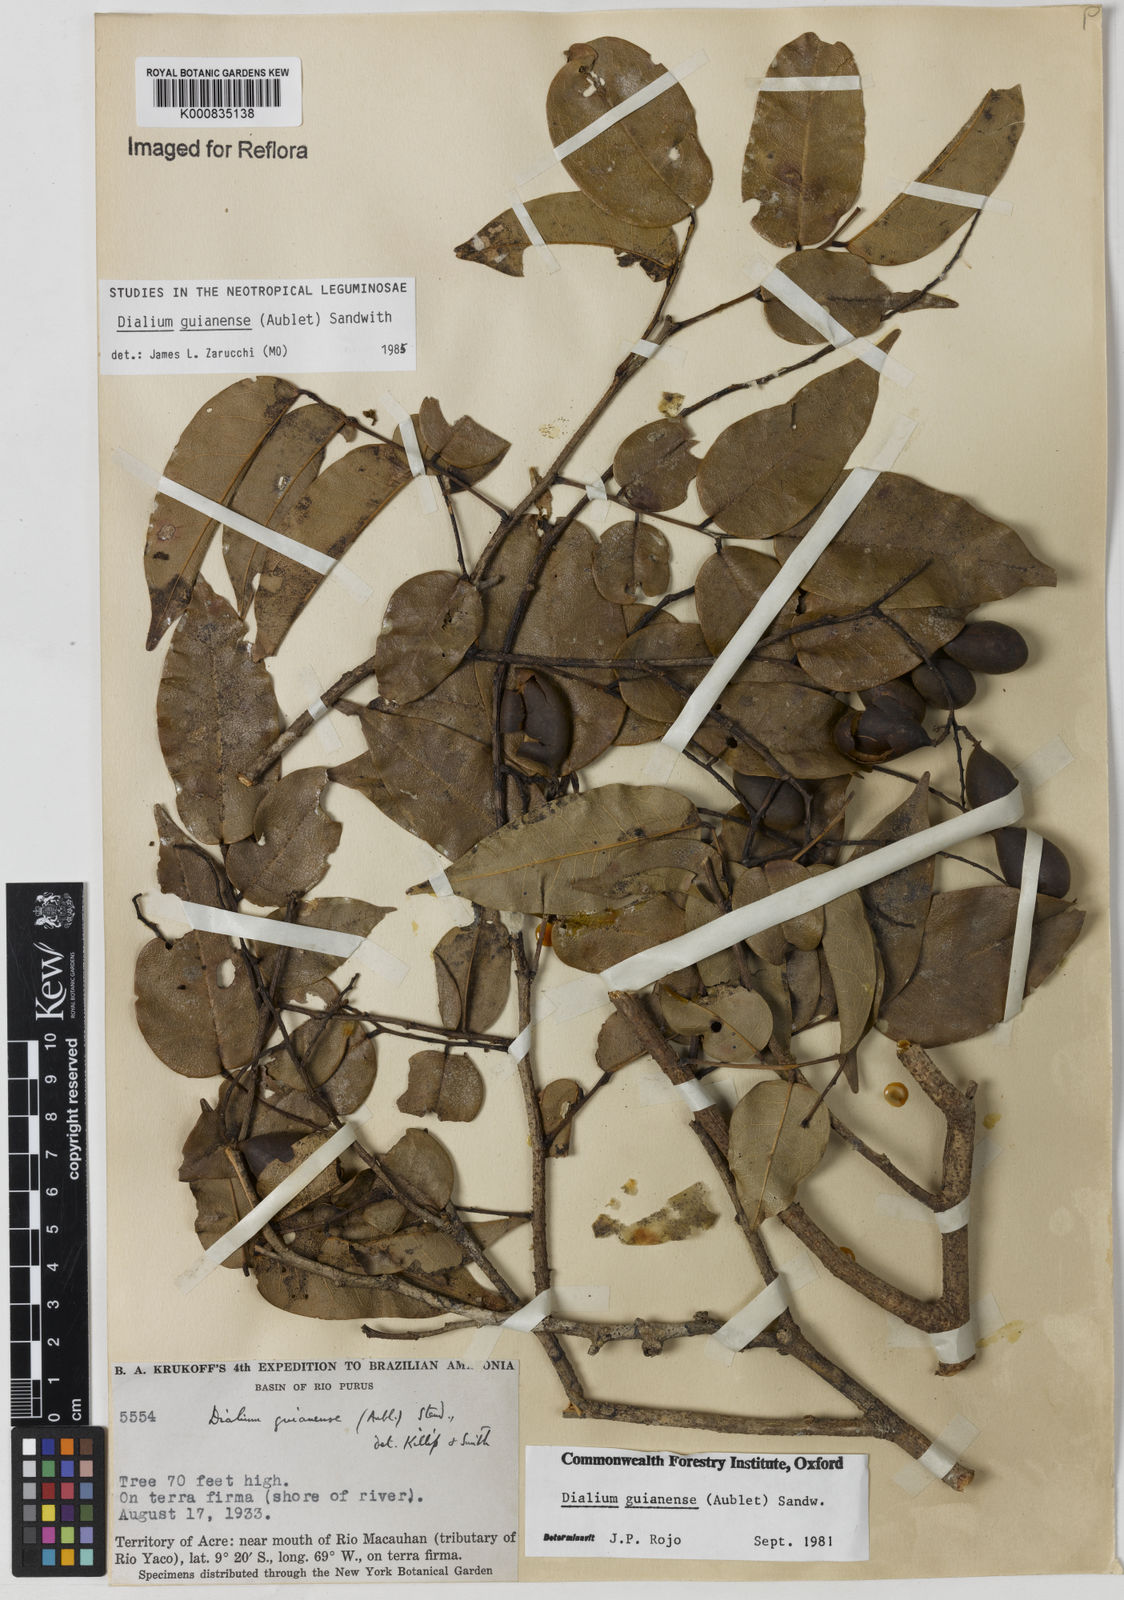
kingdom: Plantae
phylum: Tracheophyta
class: Magnoliopsida
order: Fabales
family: Fabaceae
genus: Dialium
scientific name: Dialium guianense
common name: Ironwood
